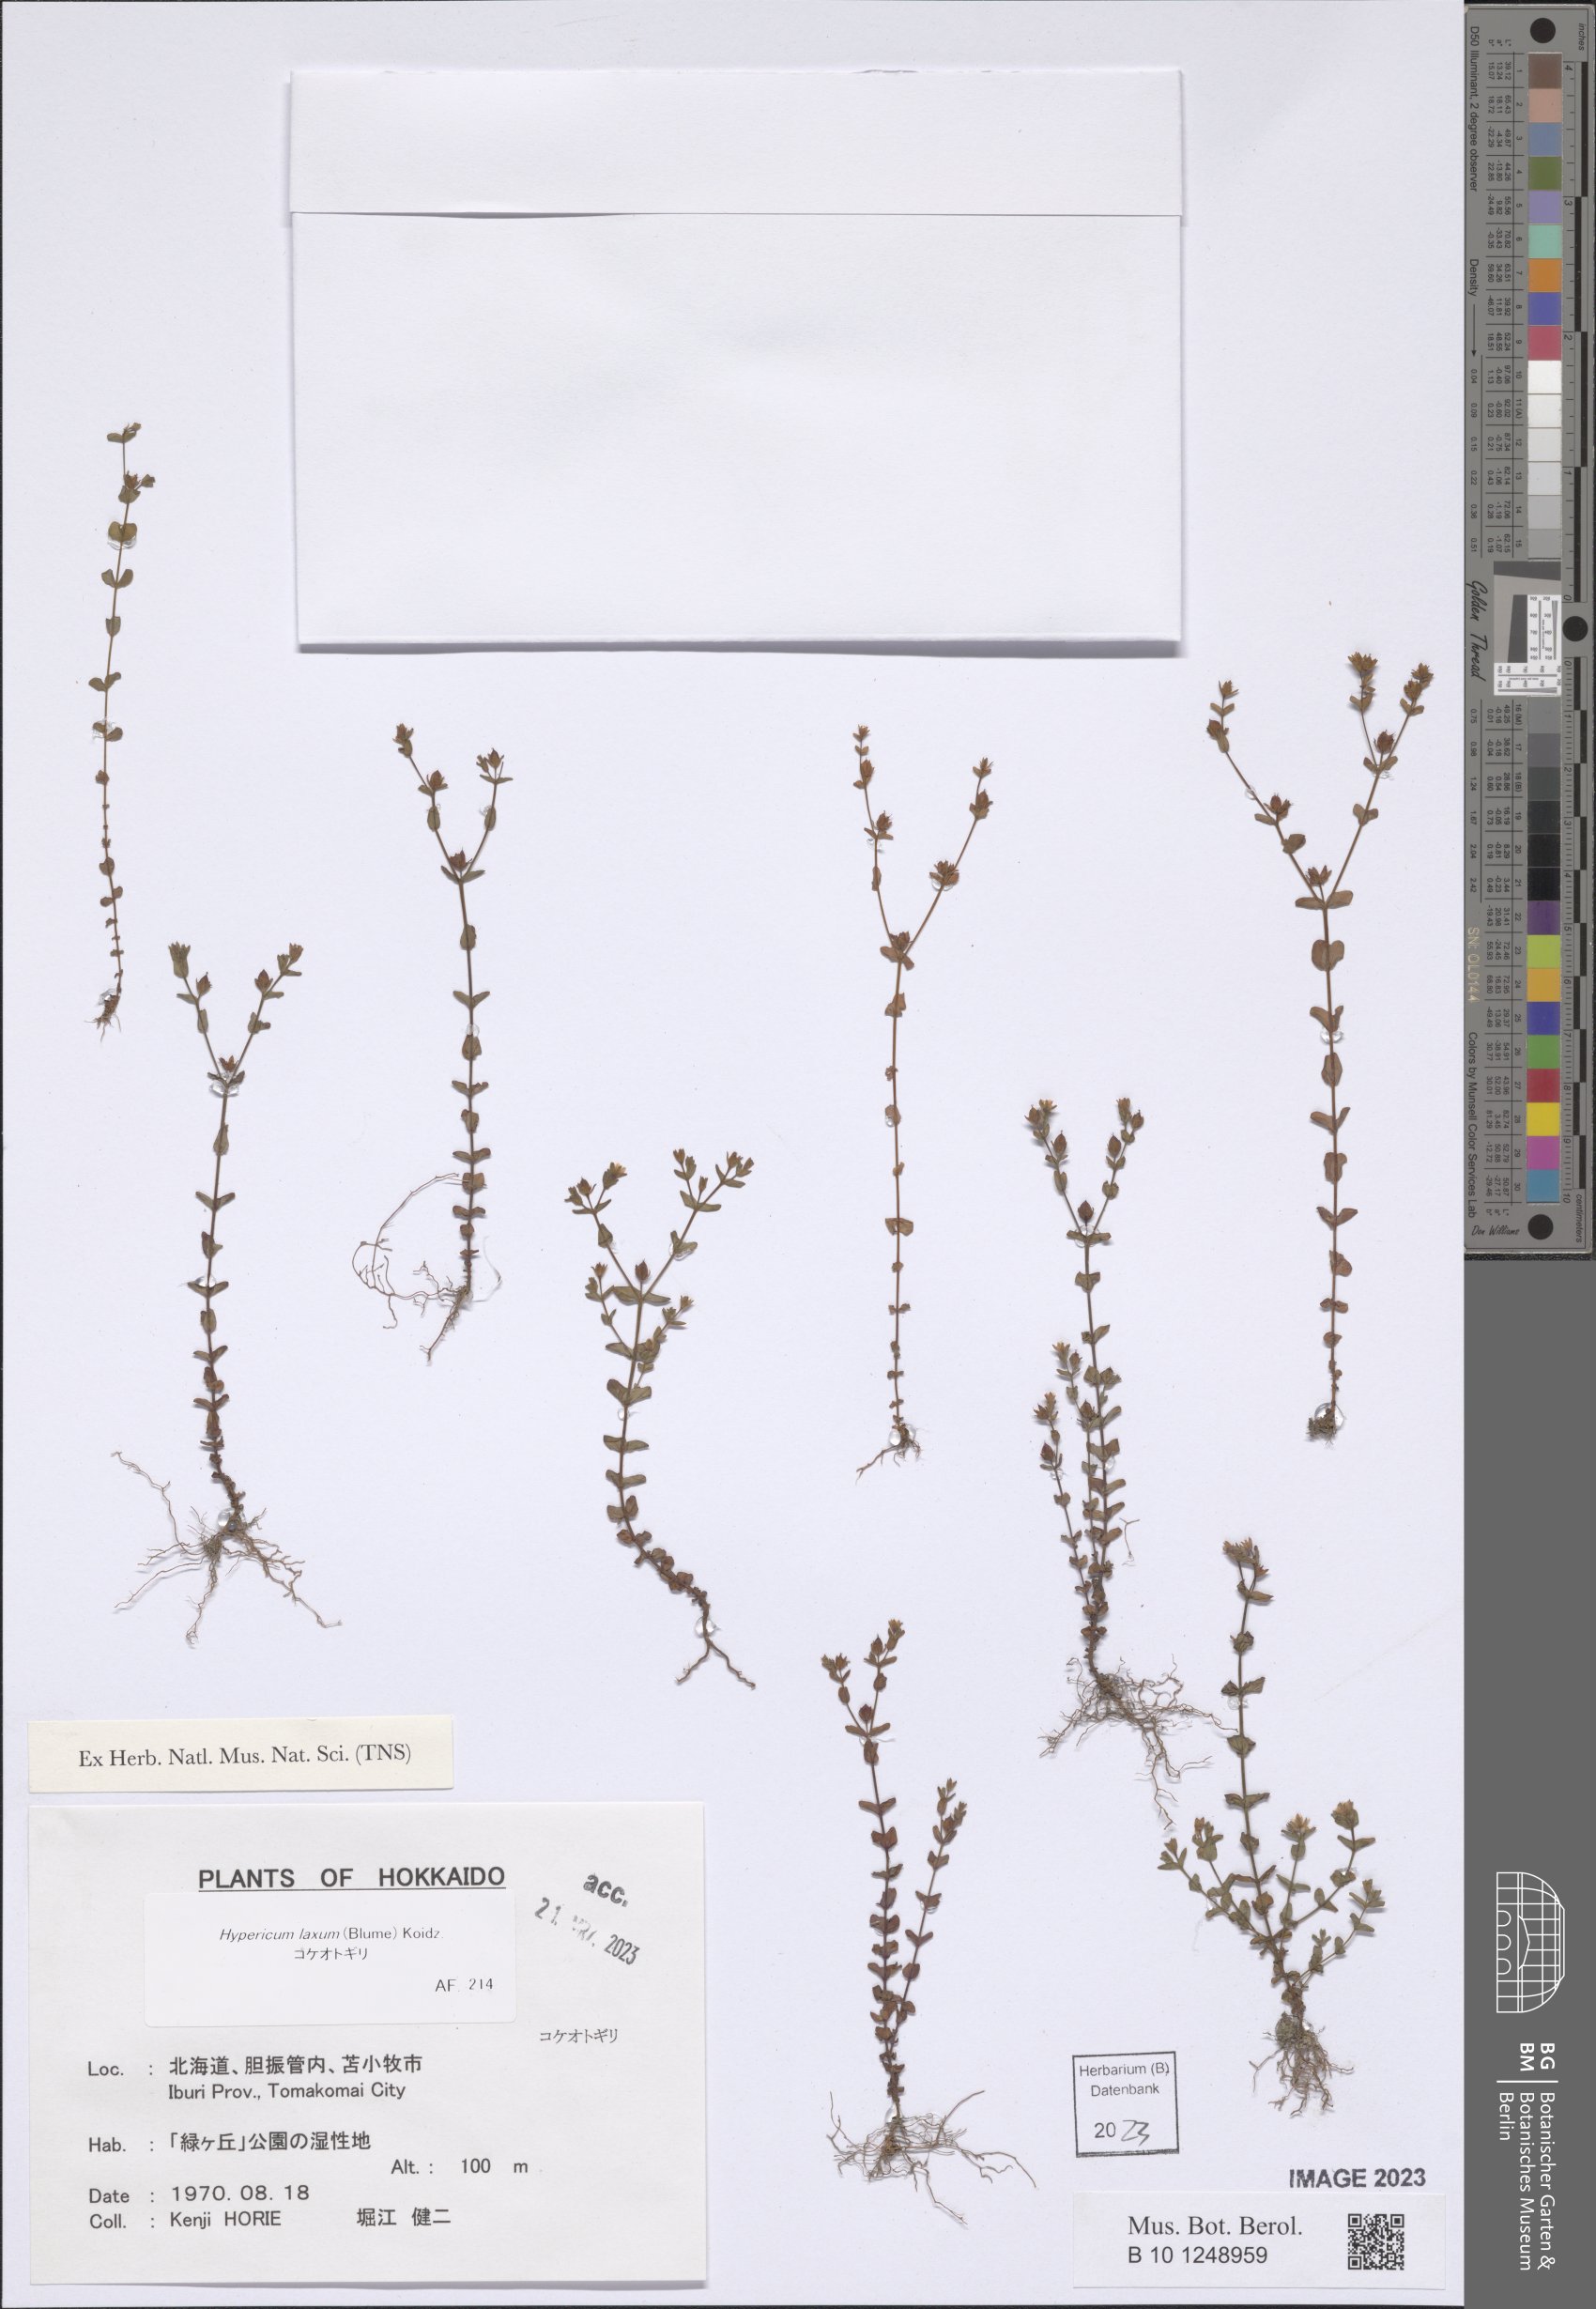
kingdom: Plantae
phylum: Tracheophyta
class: Magnoliopsida
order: Malpighiales
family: Hypericaceae
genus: Hypericum
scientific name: Hypericum japonicum
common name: Matted st. john's-wort
